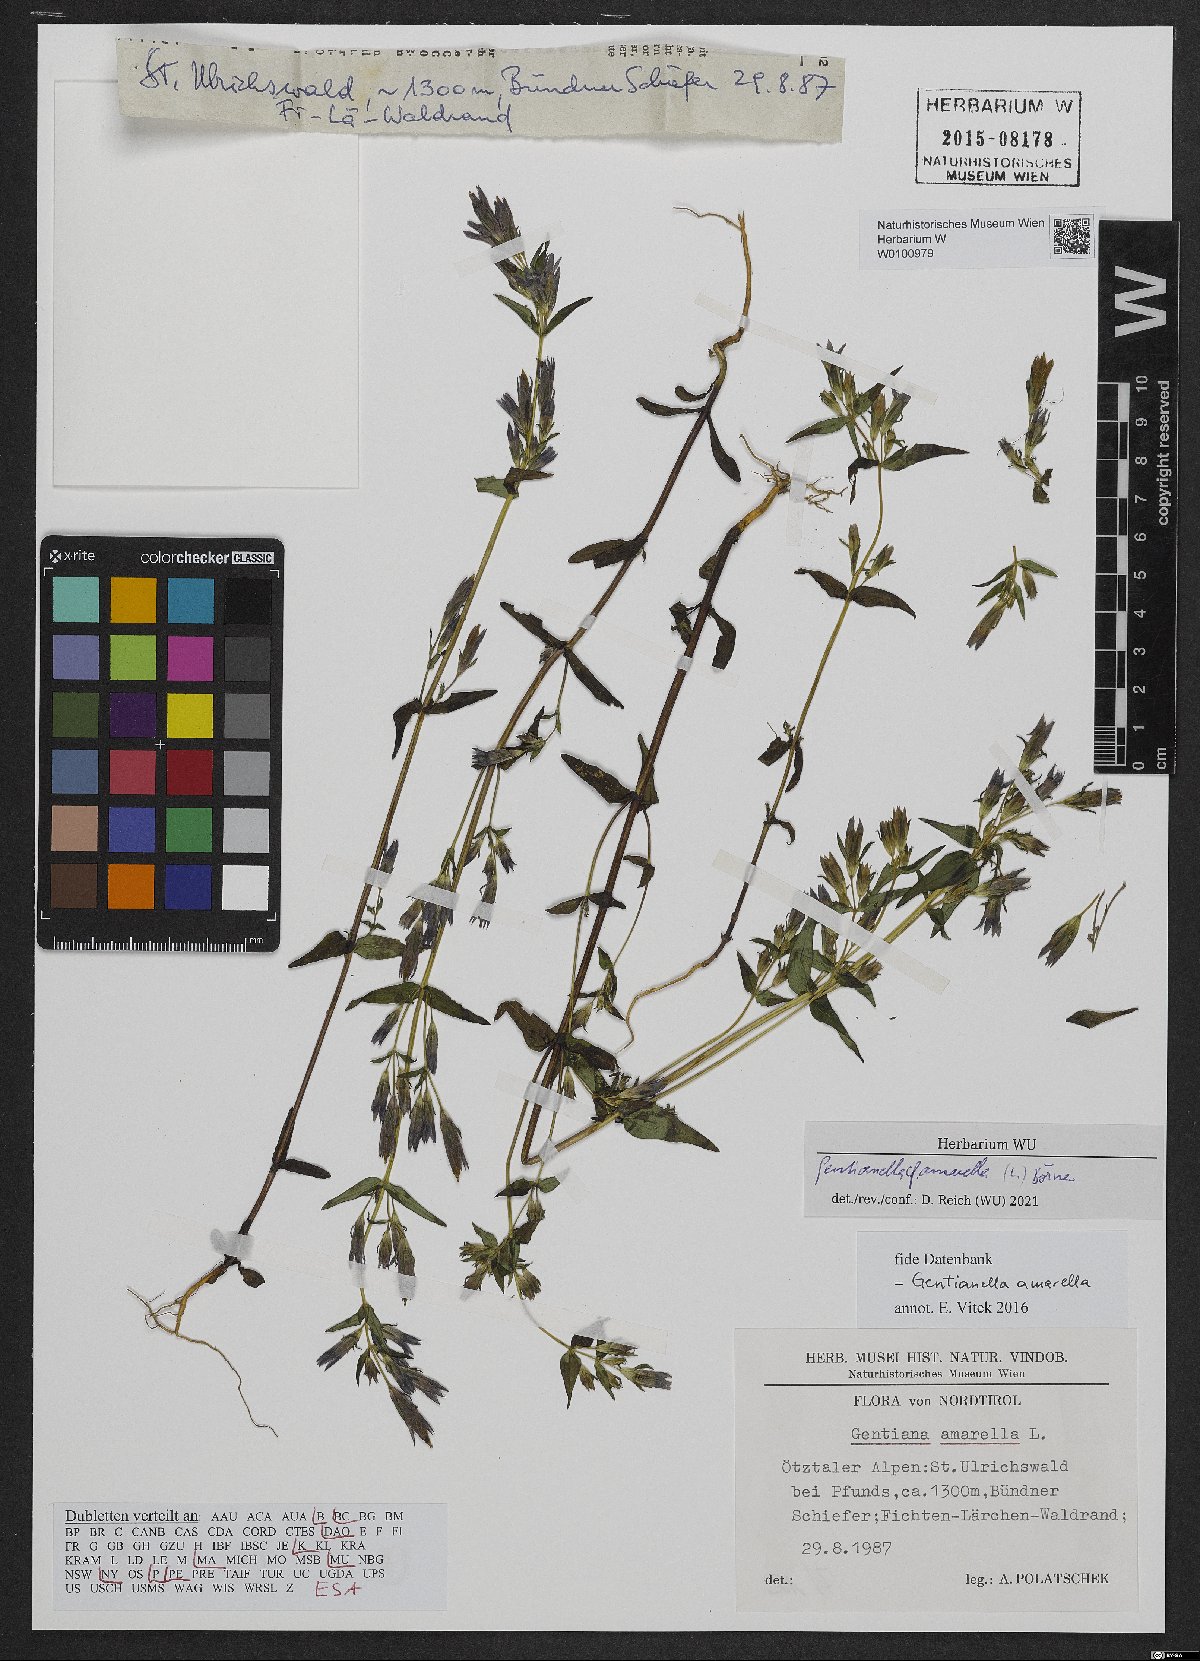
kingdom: Plantae
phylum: Tracheophyta
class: Magnoliopsida
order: Gentianales
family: Gentianaceae
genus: Gentianella
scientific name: Gentianella amarella
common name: Autumn gentian
